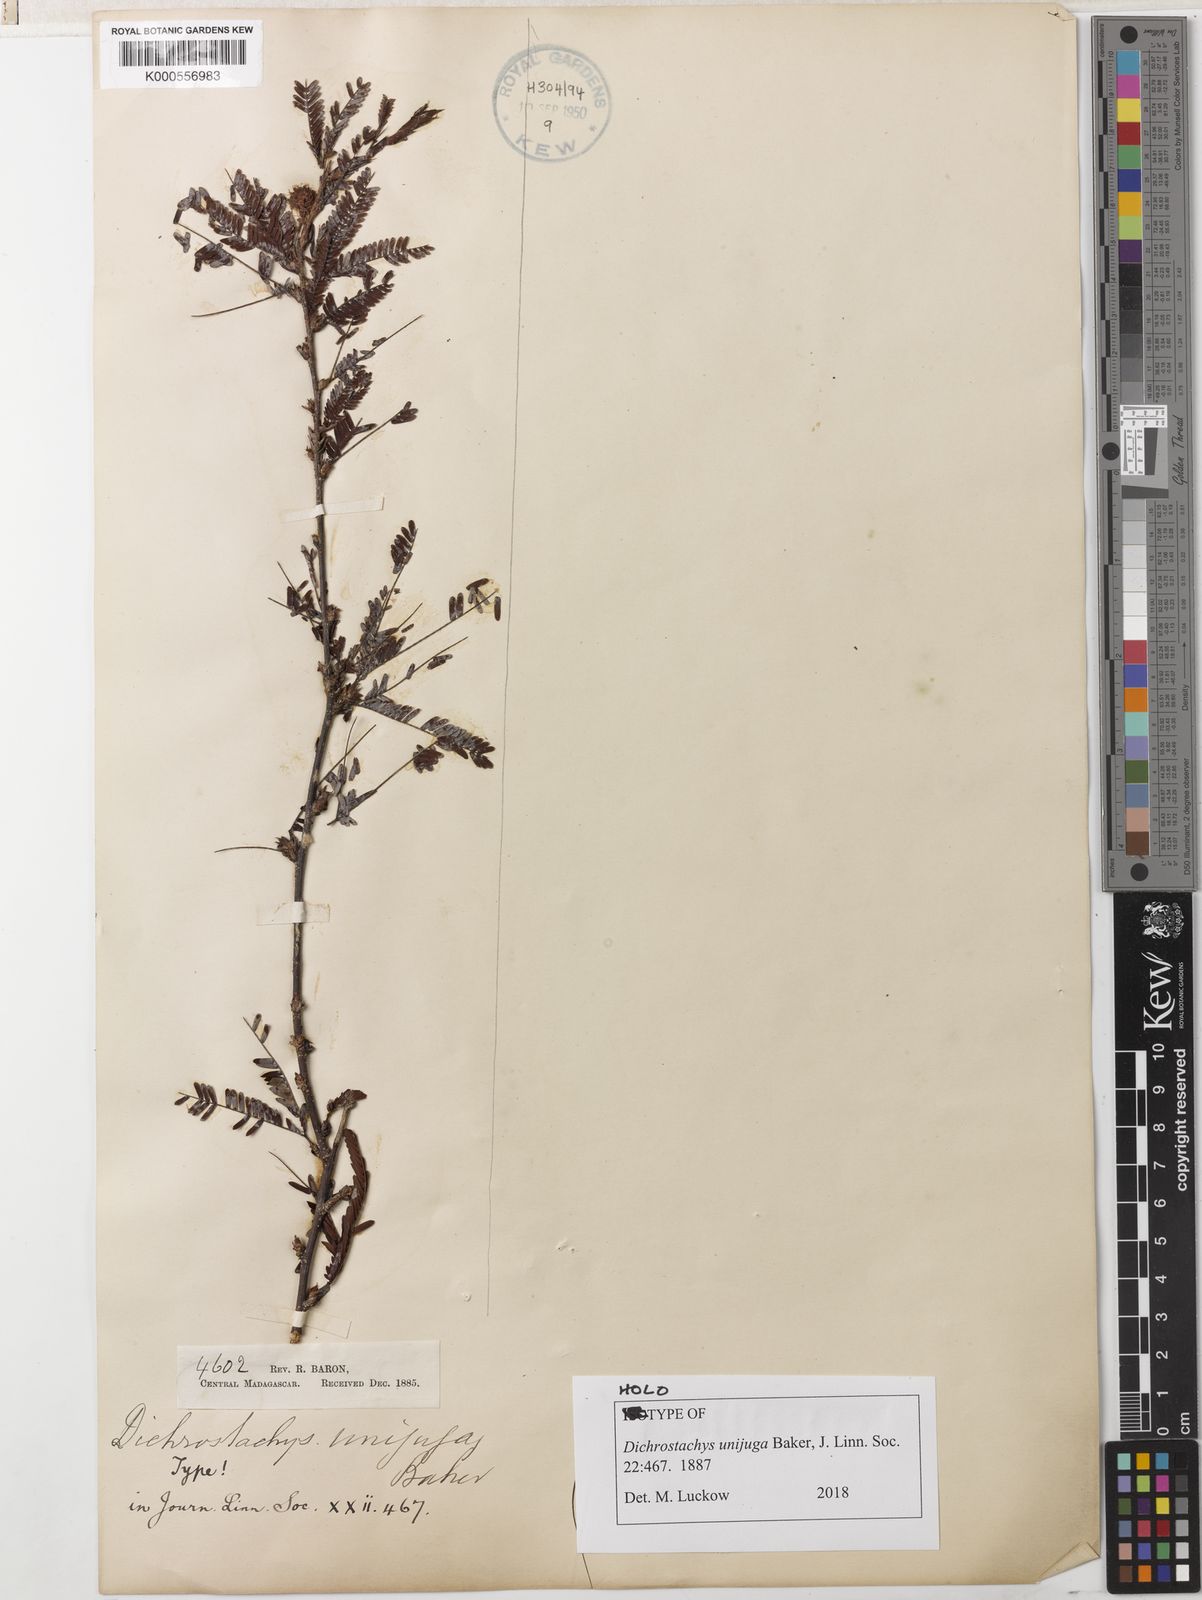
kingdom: Plantae
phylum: Tracheophyta
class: Magnoliopsida
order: Fabales
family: Fabaceae
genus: Dichrostachys
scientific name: Dichrostachys unijuga
